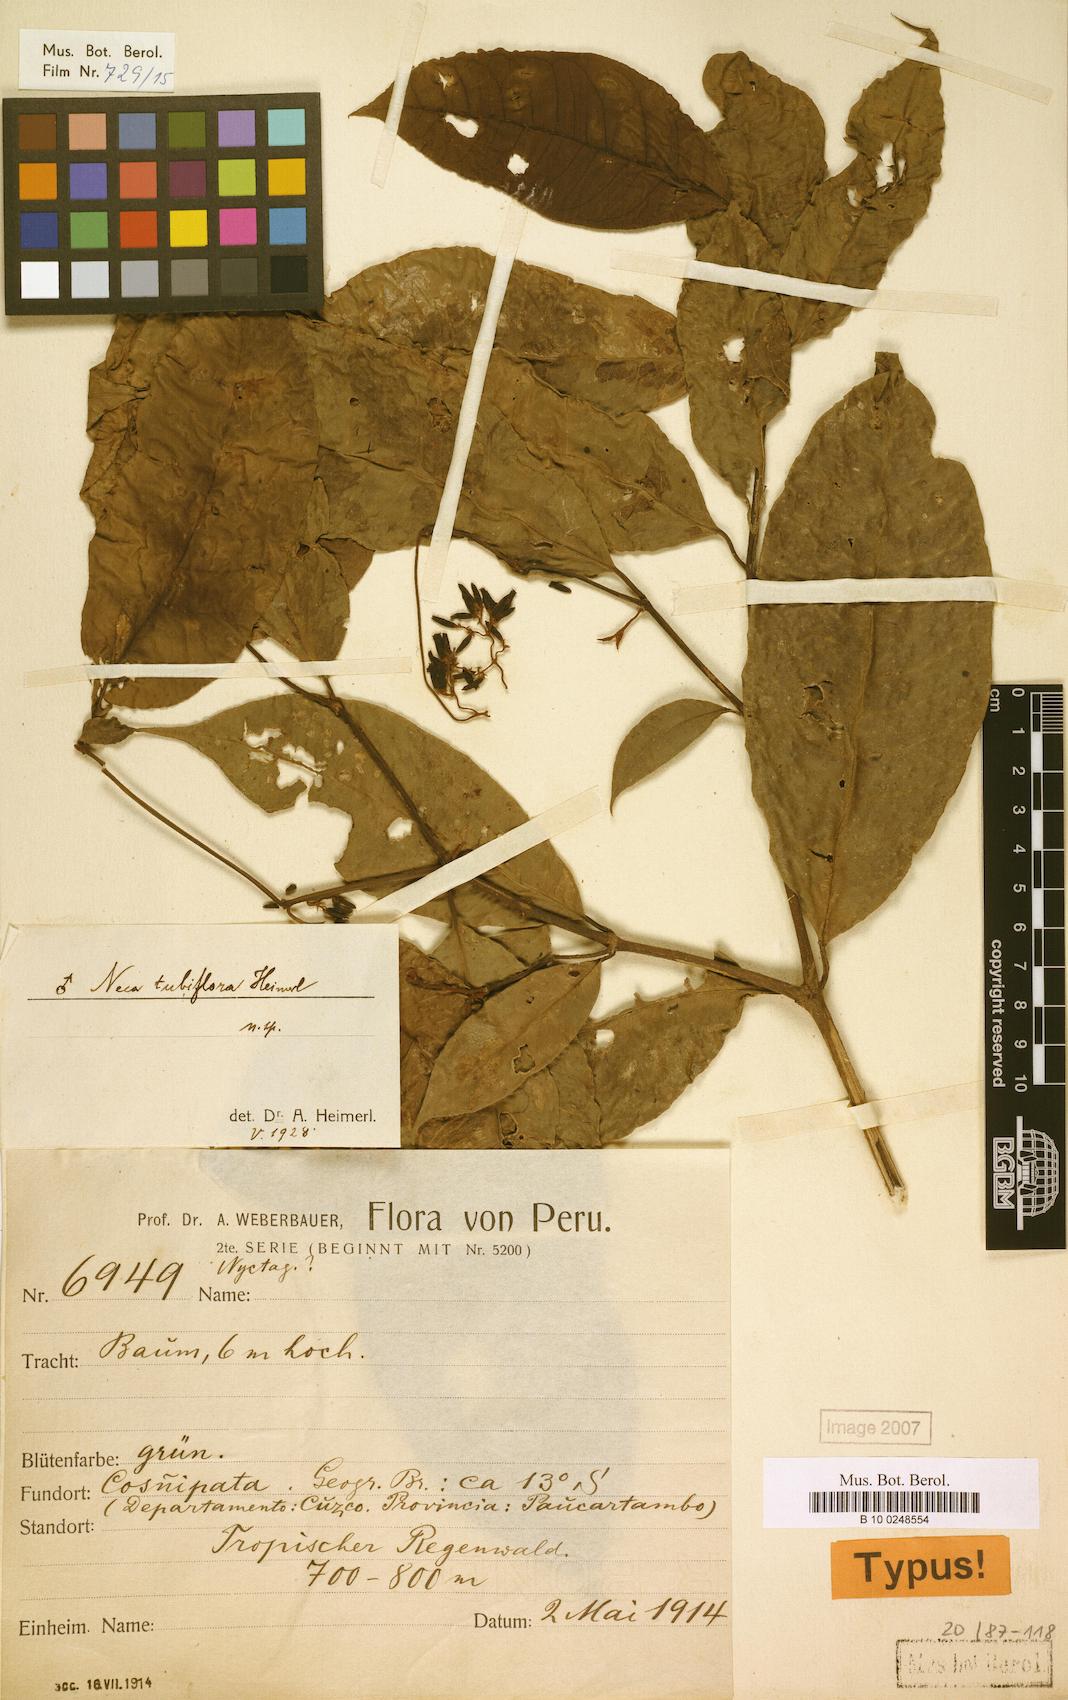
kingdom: Plantae
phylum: Tracheophyta
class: Magnoliopsida
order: Caryophyllales
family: Nyctaginaceae
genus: Neea
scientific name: Neea
